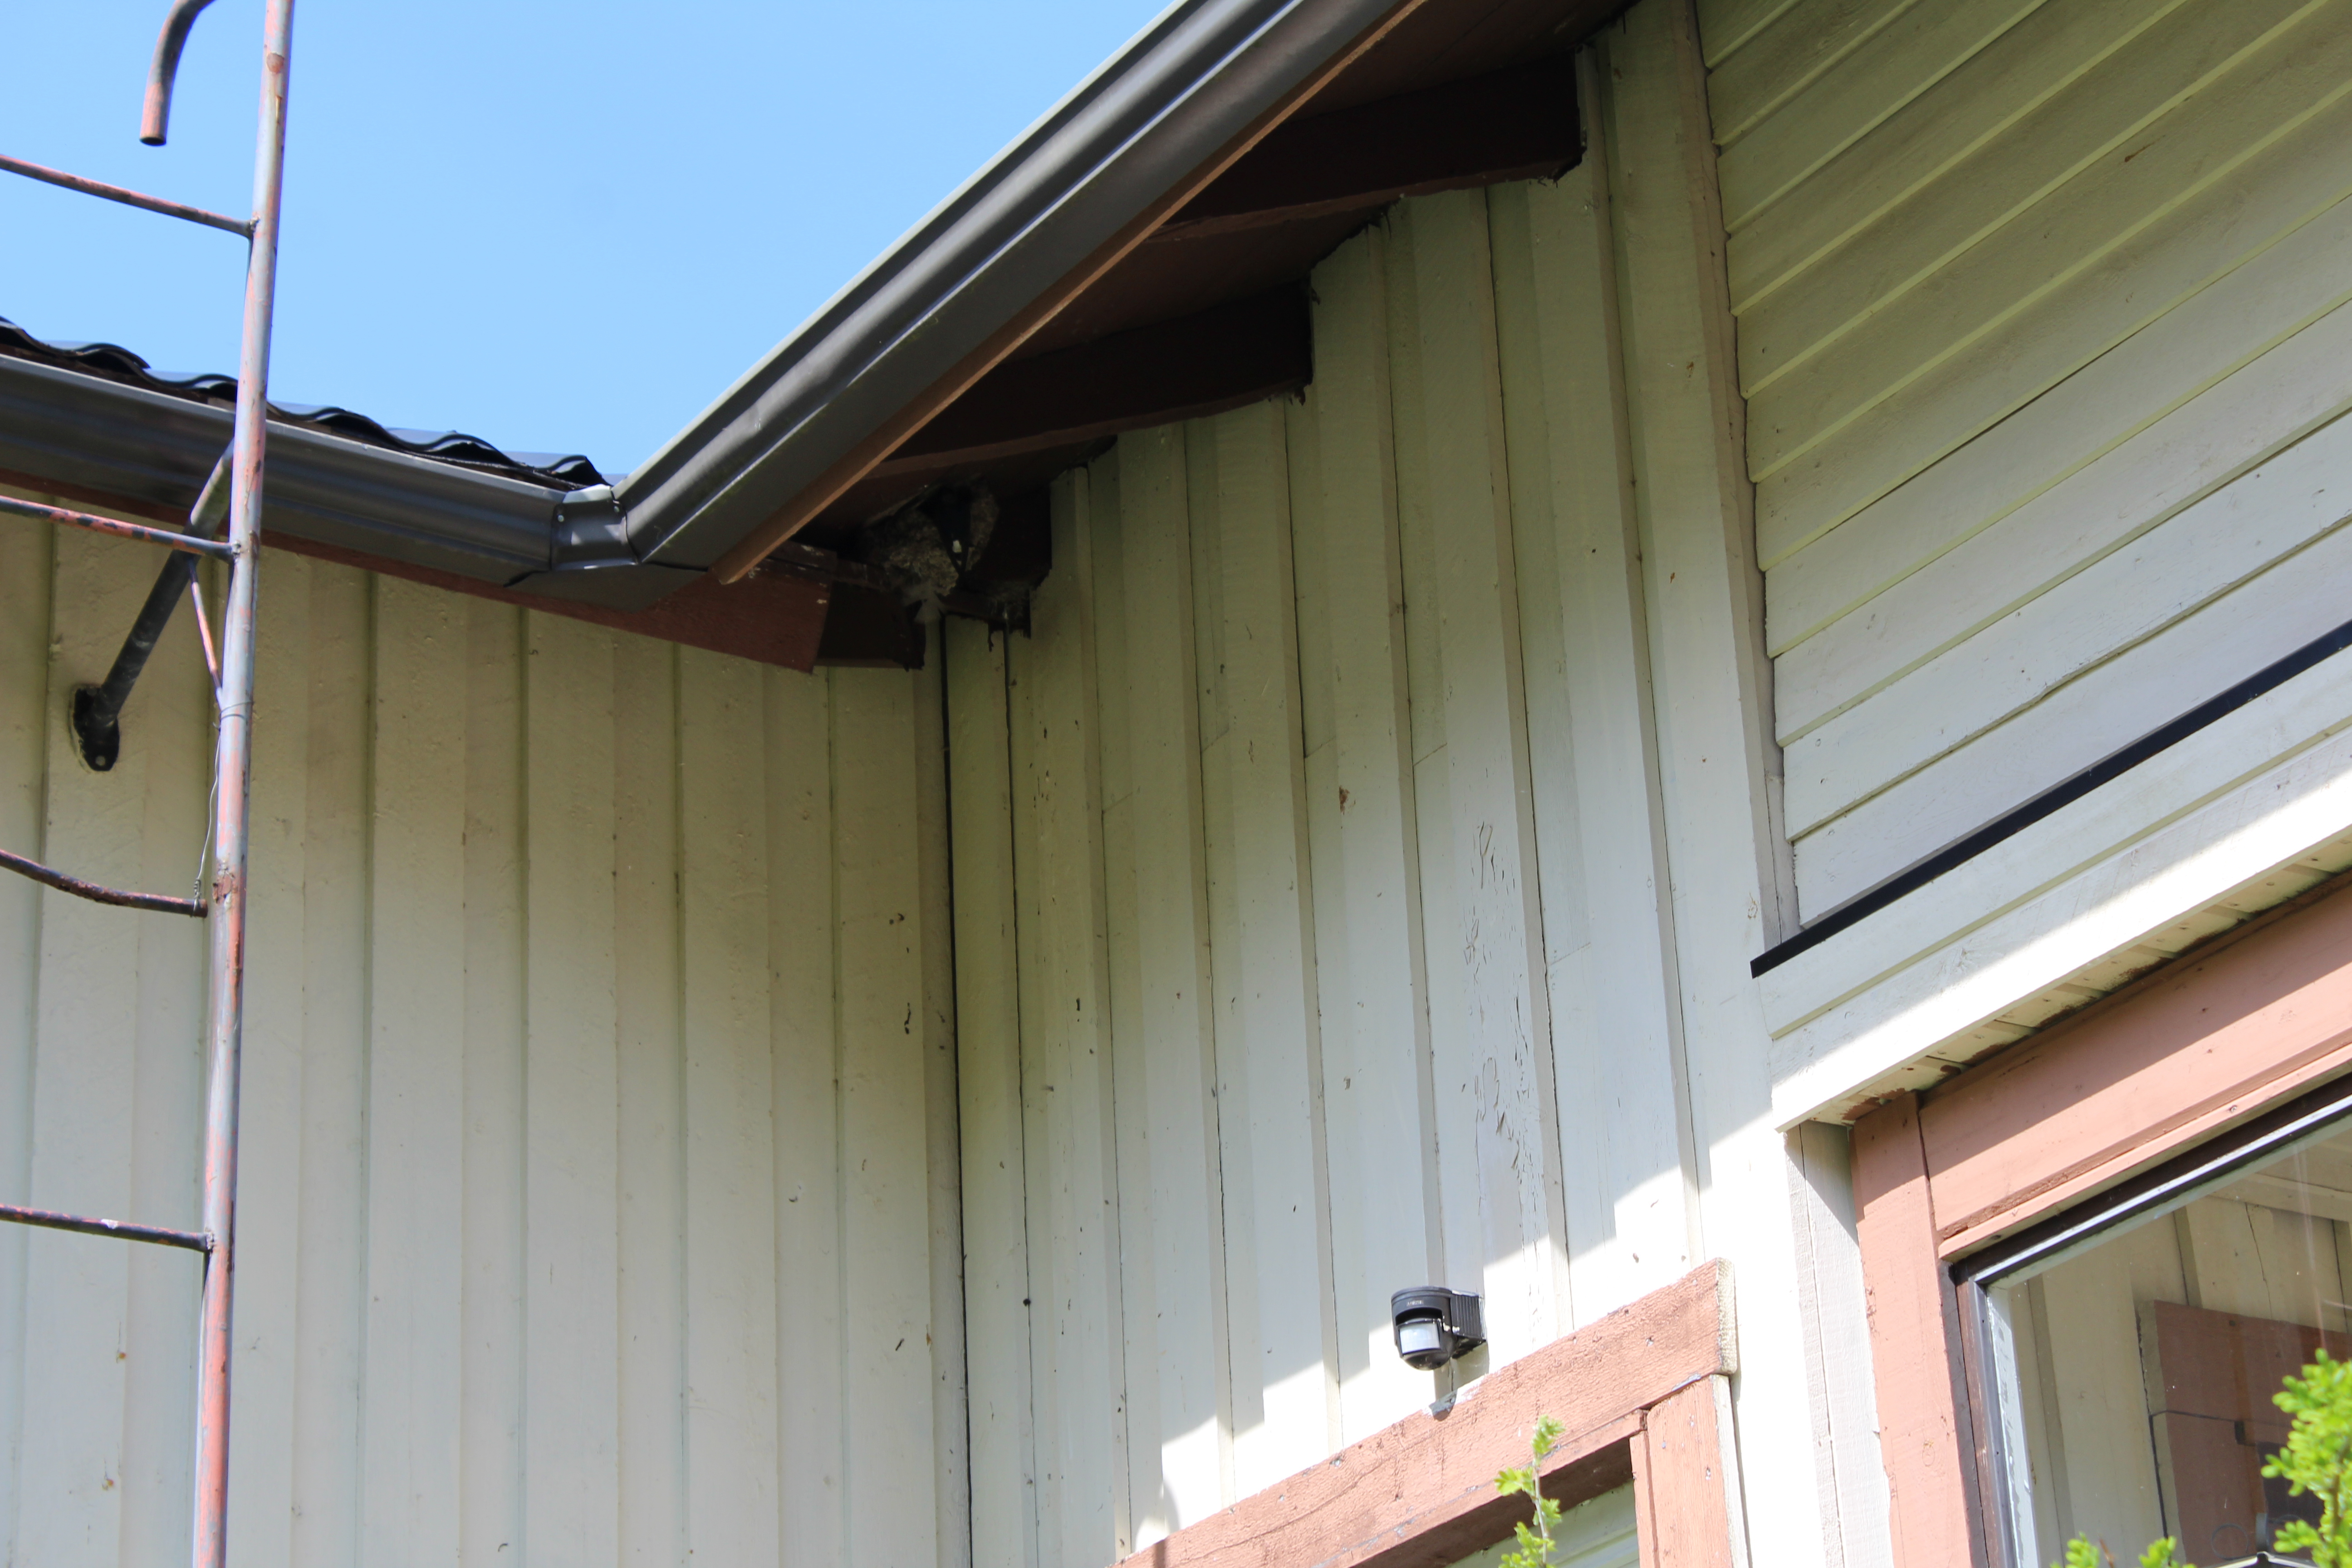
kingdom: Animalia
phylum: Chordata
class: Aves
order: Passeriformes
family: Hirundinidae
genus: Delichon
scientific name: Delichon urbicum
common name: Common house martin
